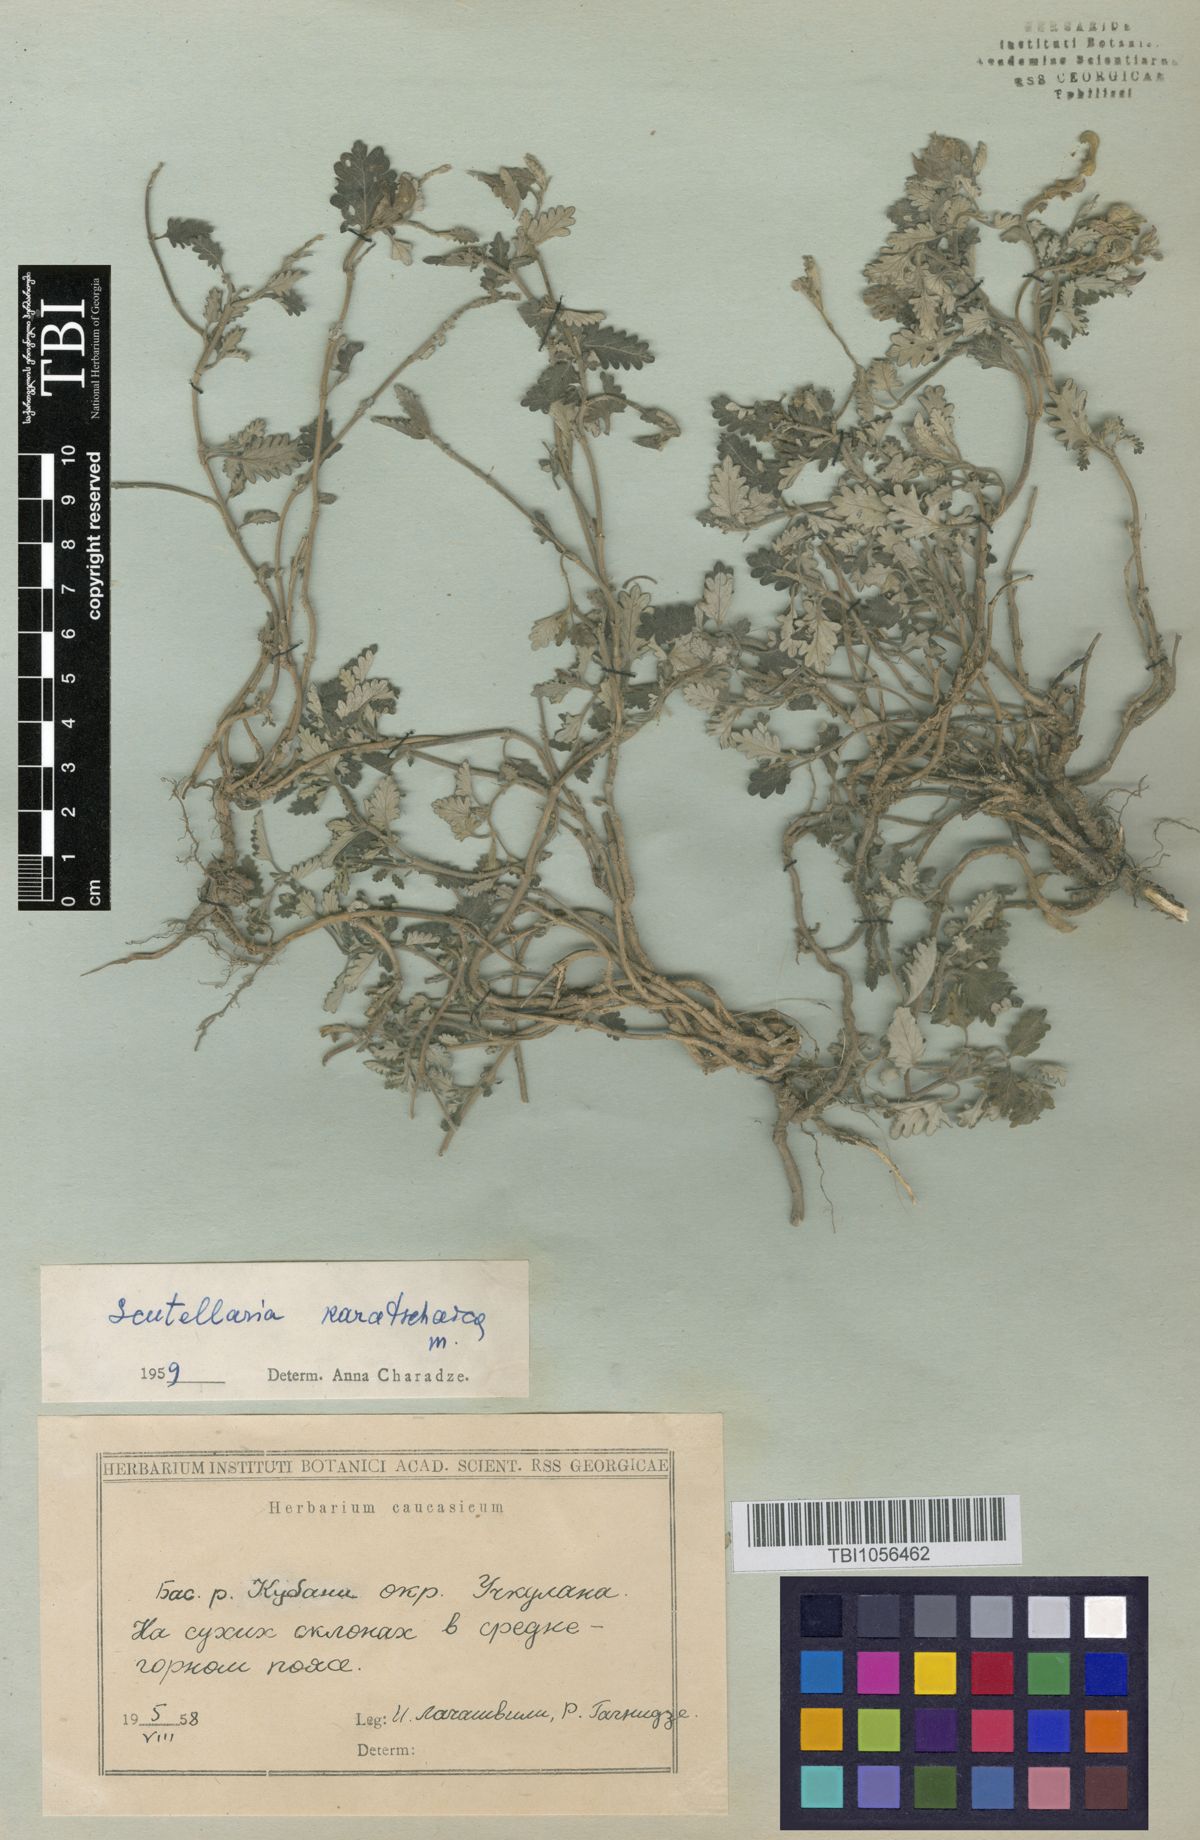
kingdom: Plantae
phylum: Tracheophyta
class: Magnoliopsida
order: Lamiales
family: Lamiaceae
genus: Scutellaria
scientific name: Scutellaria orientalis
